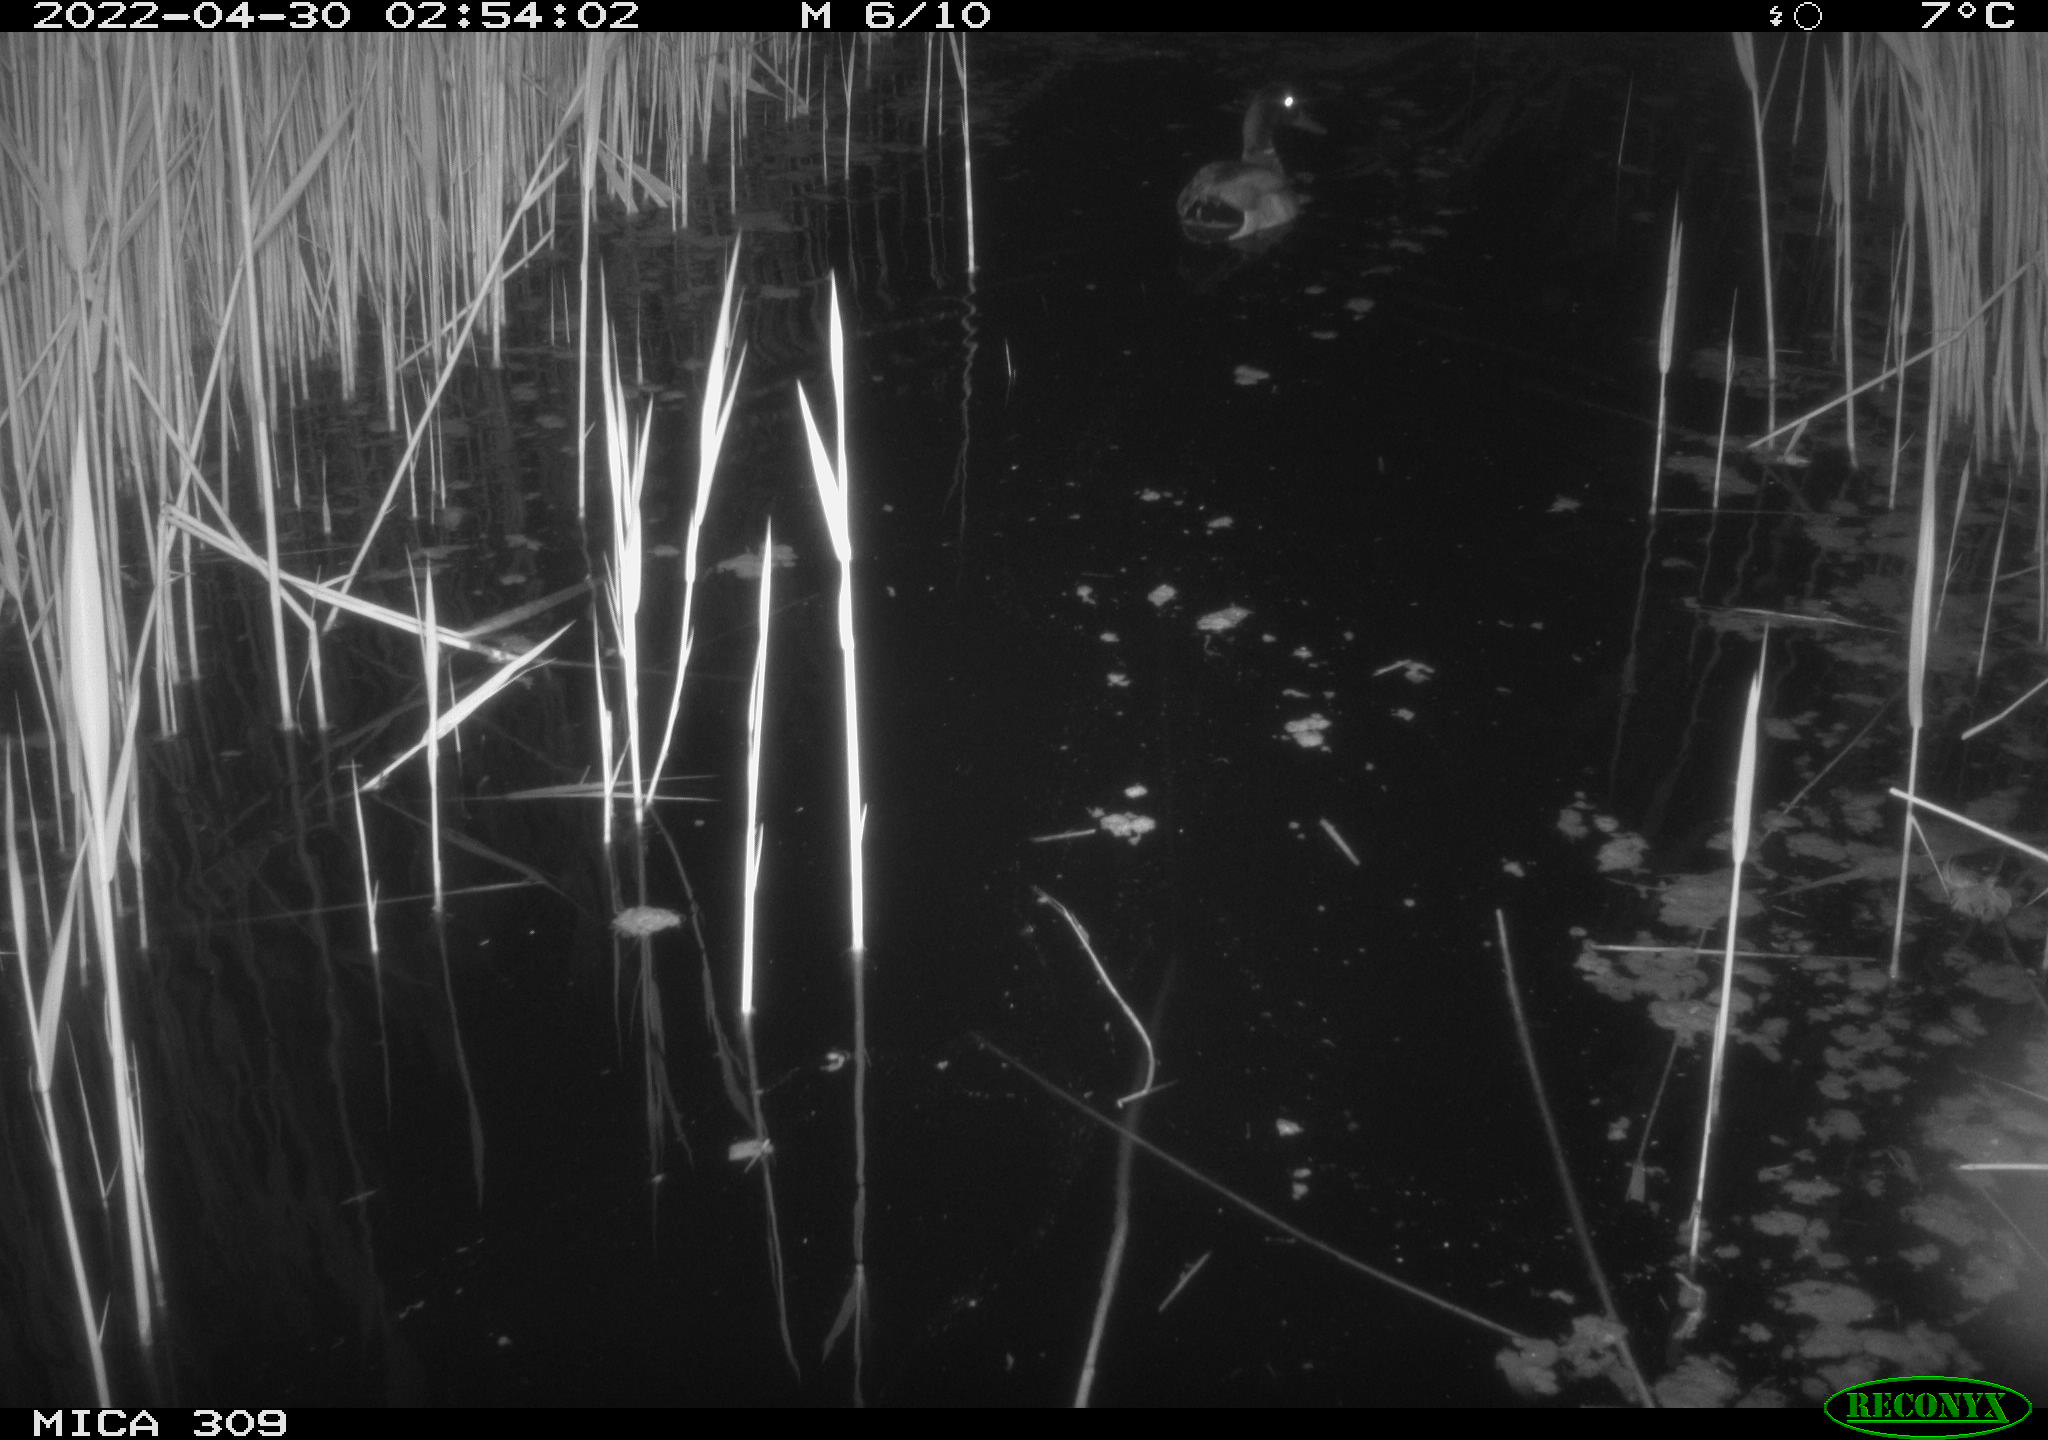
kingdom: Animalia
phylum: Chordata
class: Aves
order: Anseriformes
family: Anatidae
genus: Anas
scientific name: Anas platyrhynchos
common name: Mallard
